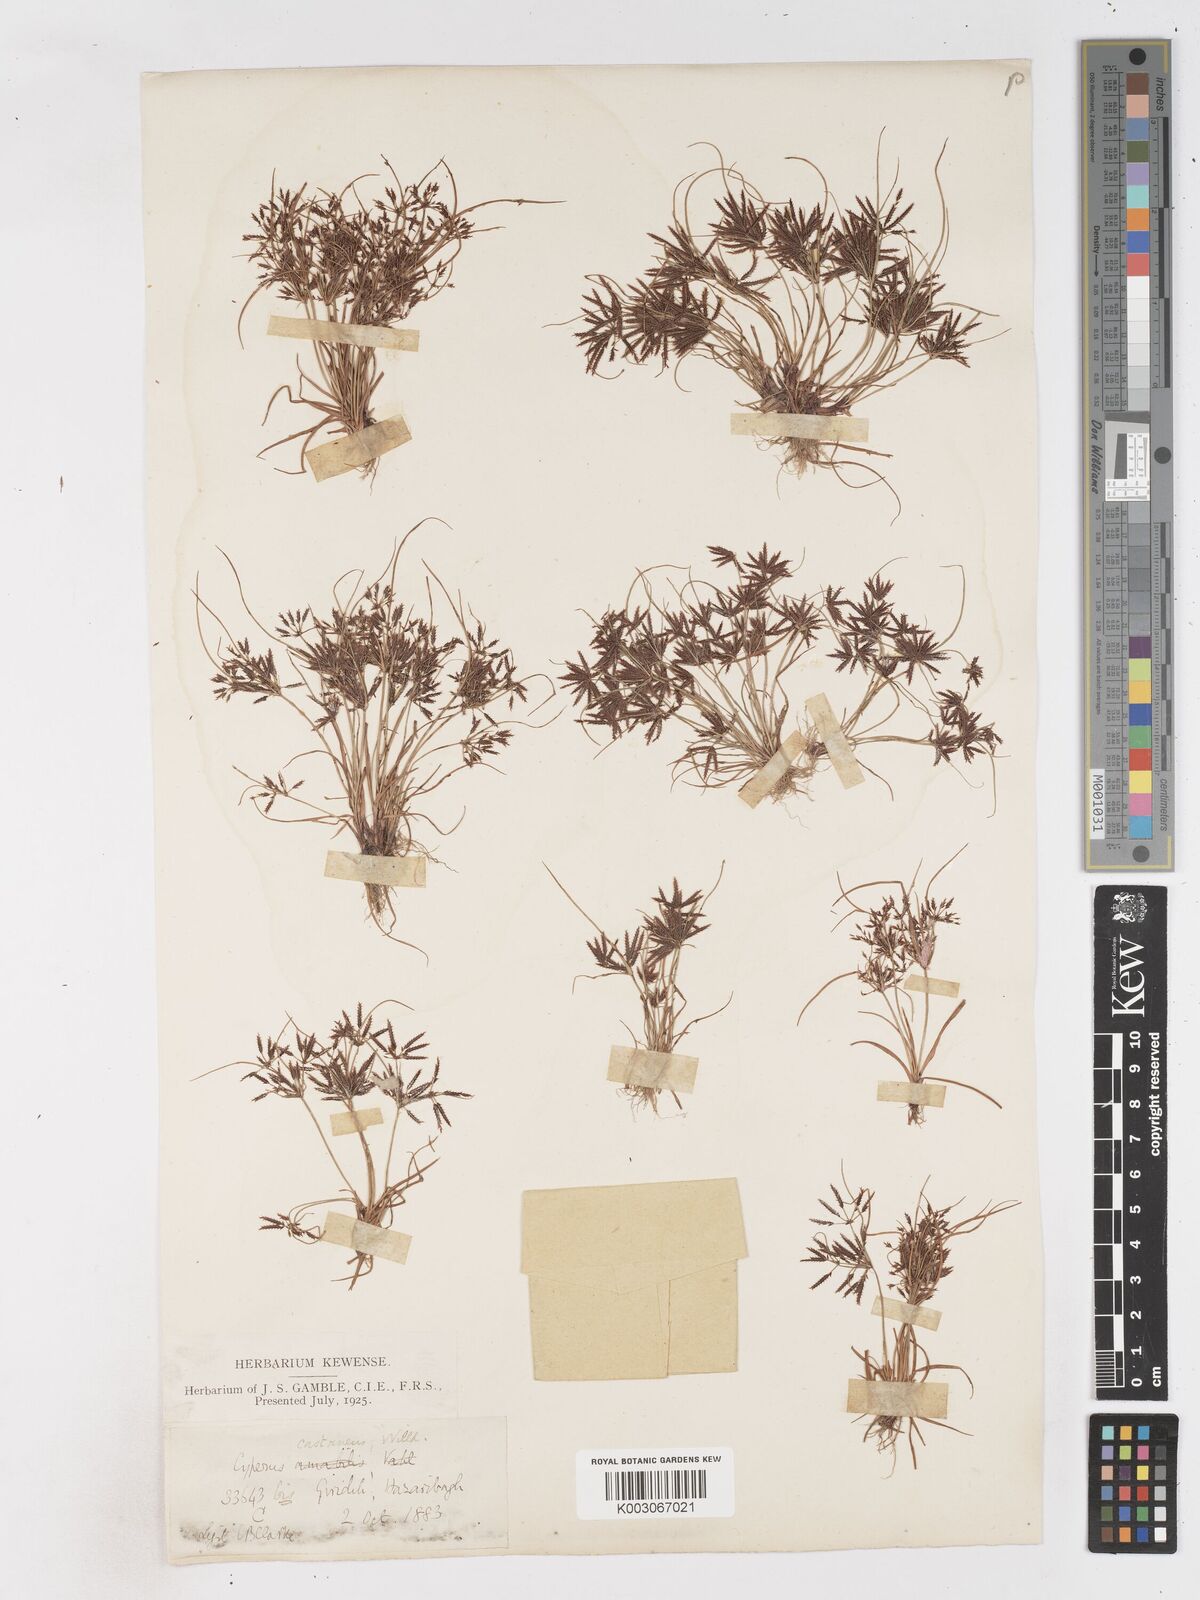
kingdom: Plantae
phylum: Tracheophyta
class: Liliopsida
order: Poales
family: Cyperaceae
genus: Cyperus
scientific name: Cyperus castaneus
